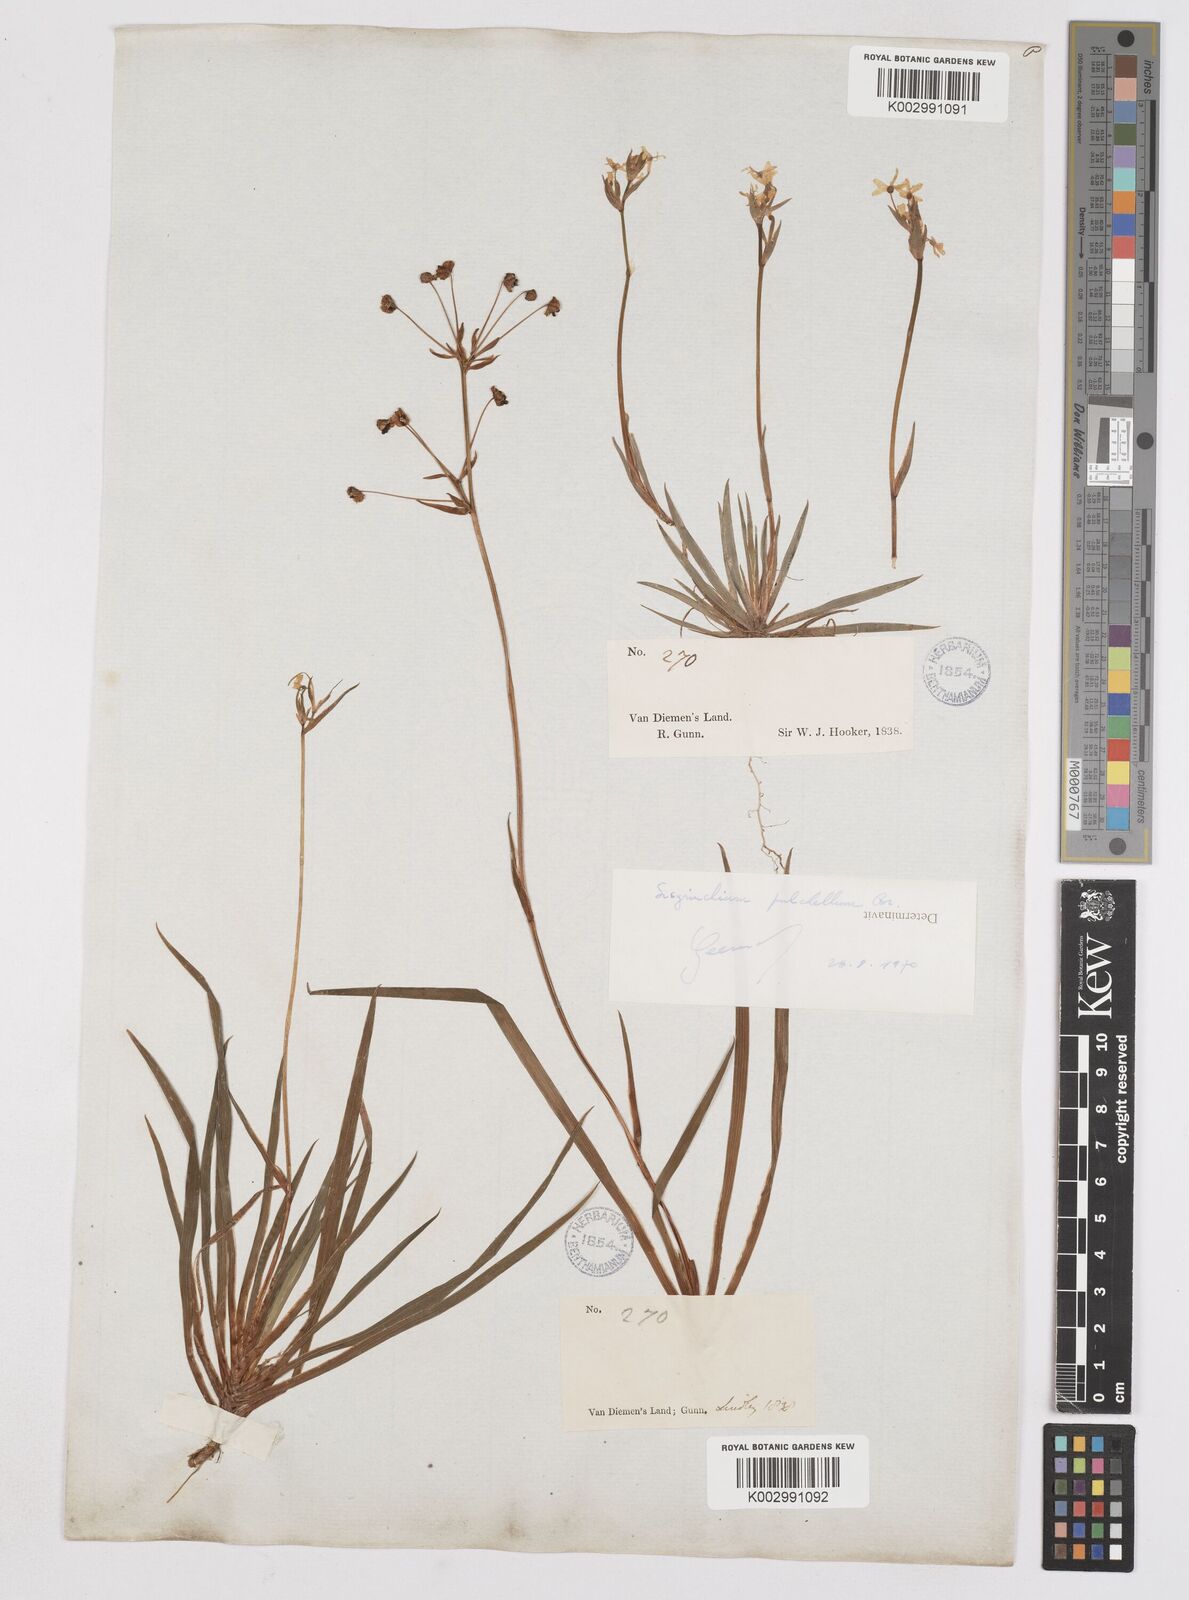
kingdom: Plantae
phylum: Tracheophyta
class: Liliopsida
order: Asparagales
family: Iridaceae
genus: Libertia
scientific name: Libertia pulchella
